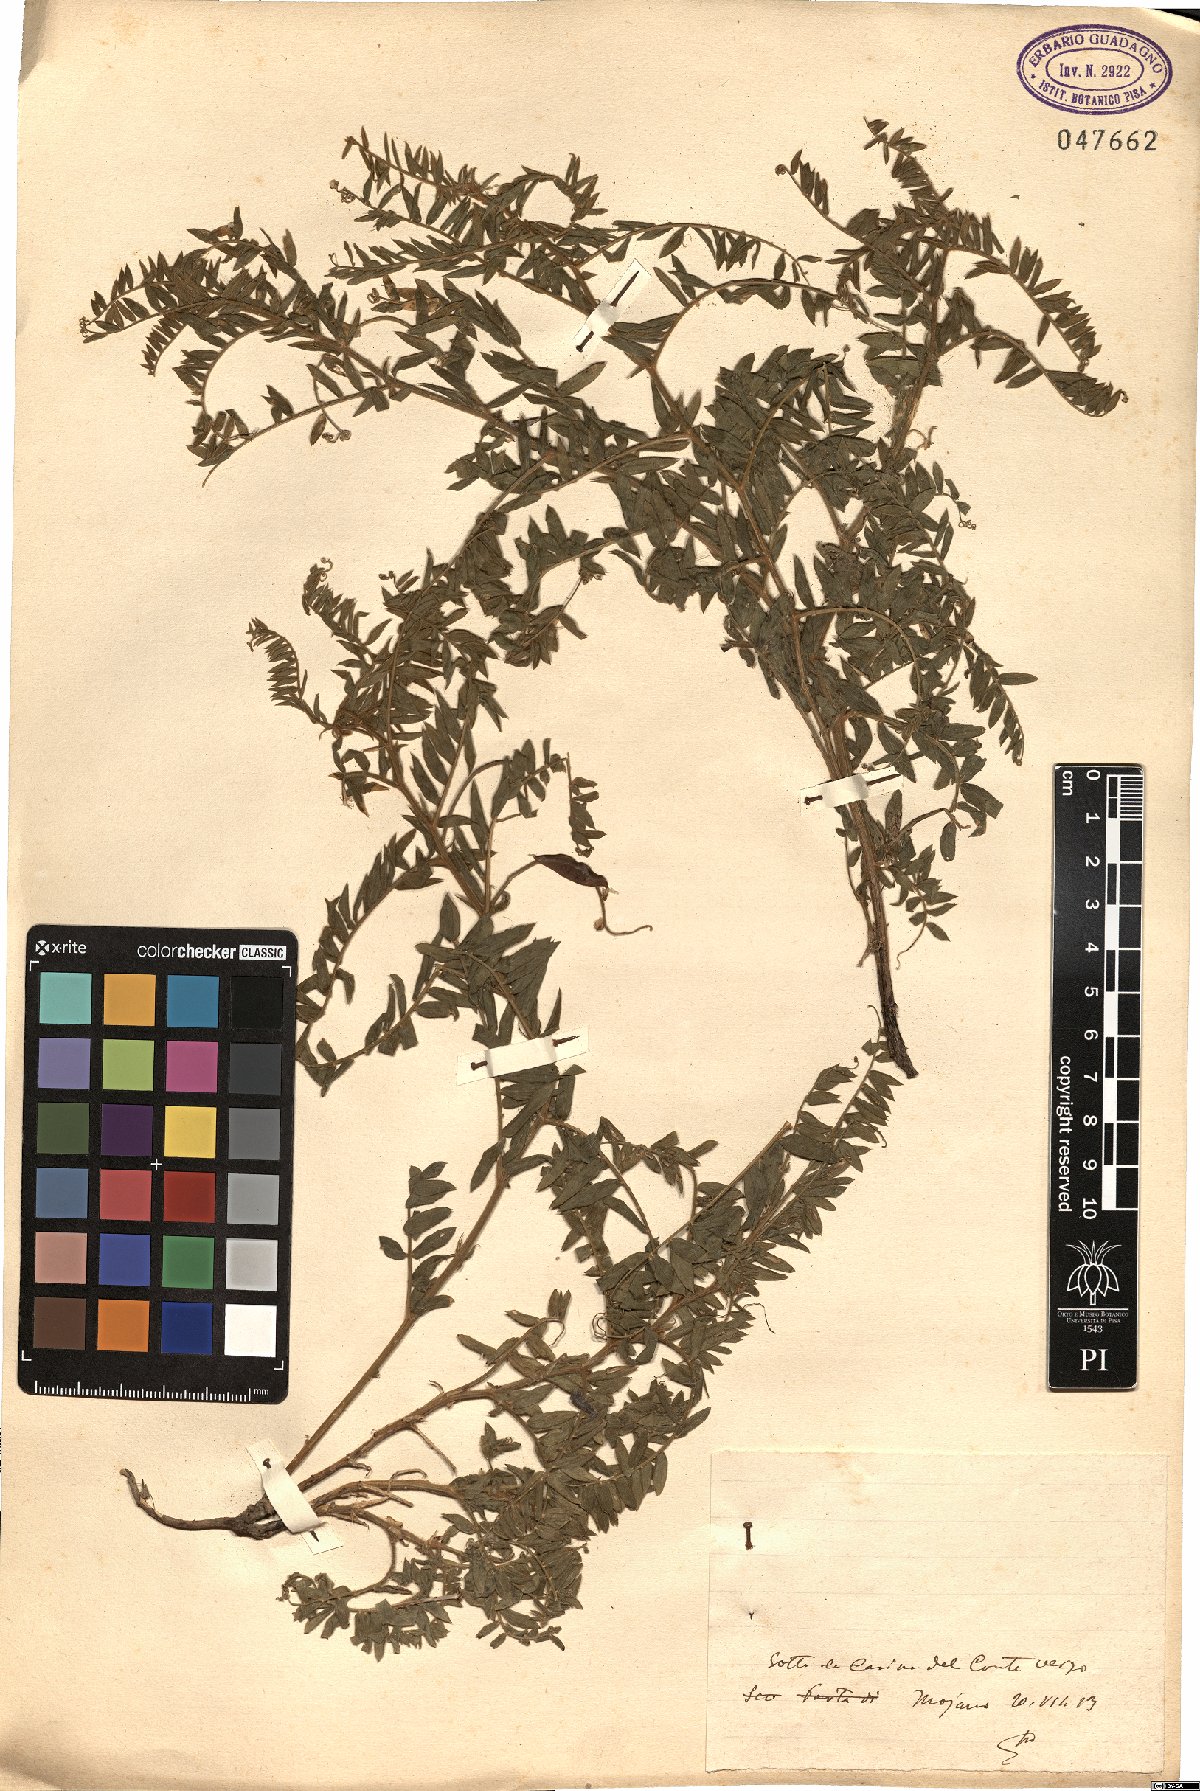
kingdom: Plantae
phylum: Tracheophyta
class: Magnoliopsida
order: Fabales
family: Fabaceae
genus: Vicia
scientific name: Vicia
